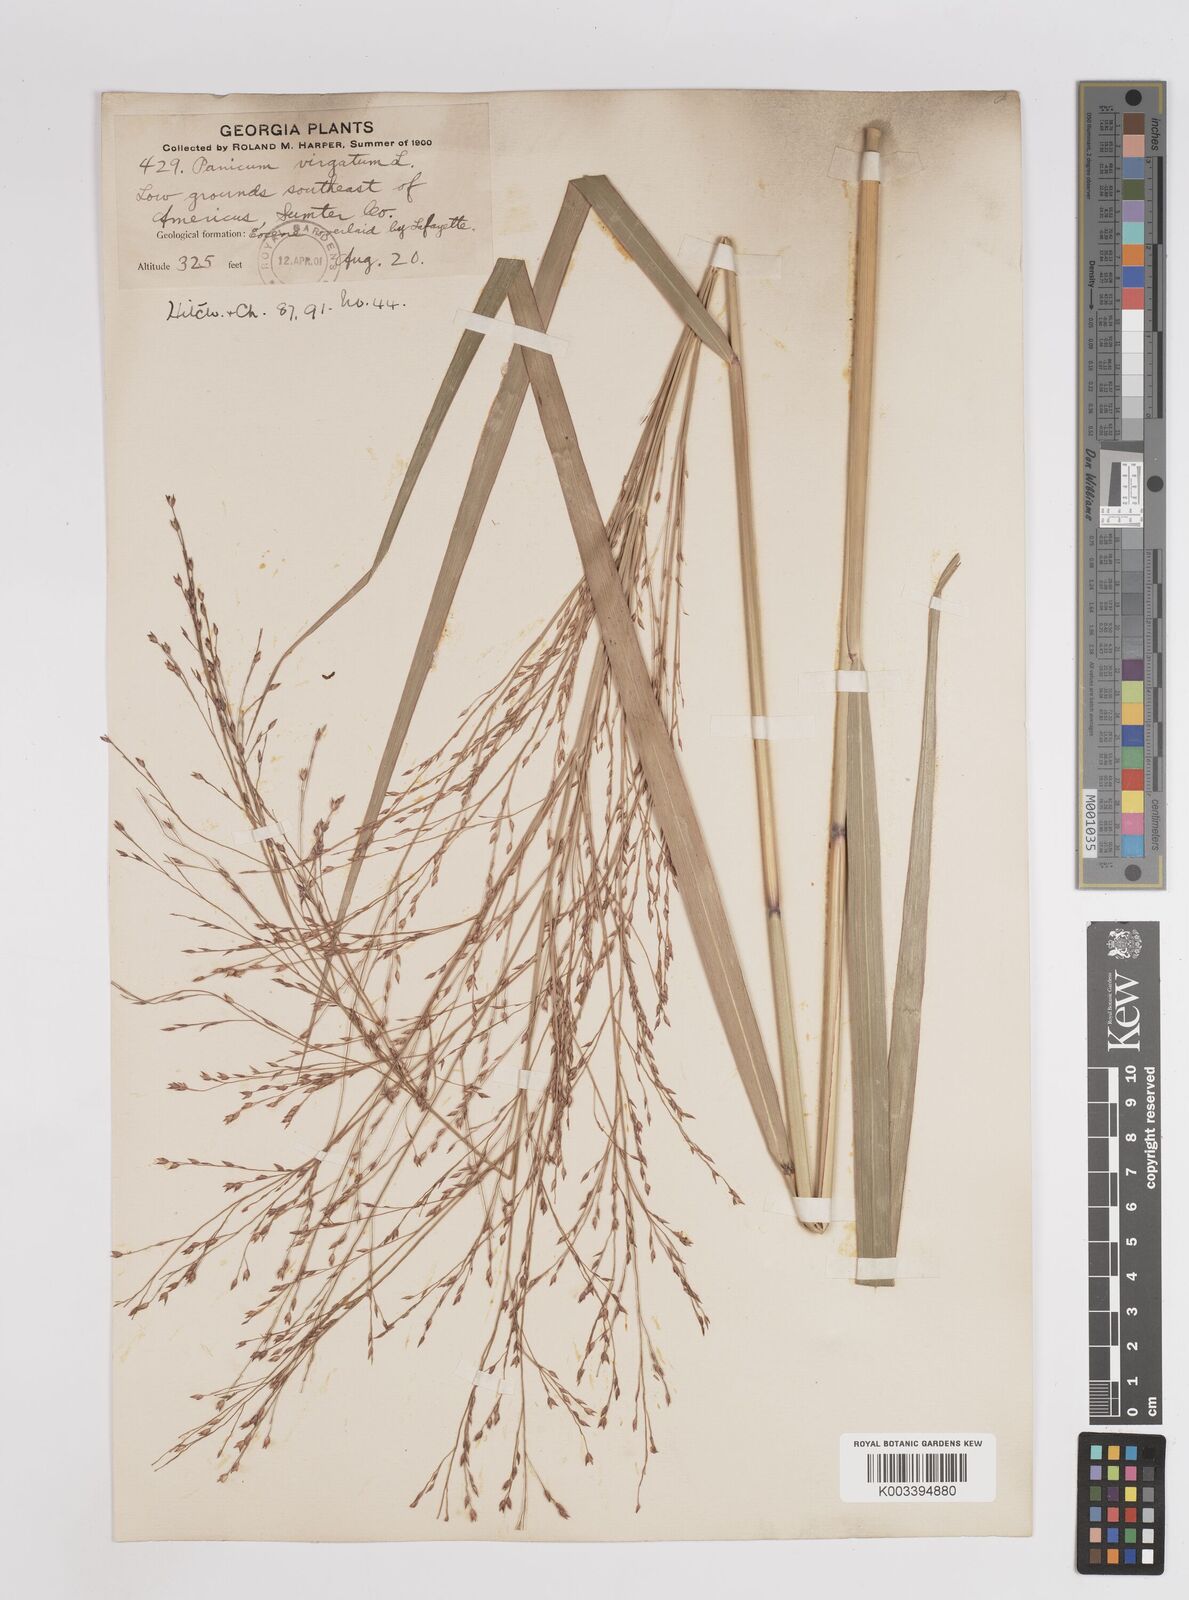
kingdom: Plantae
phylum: Tracheophyta
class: Liliopsida
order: Poales
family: Poaceae
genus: Panicum
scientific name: Panicum virgatum
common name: Switchgrass
